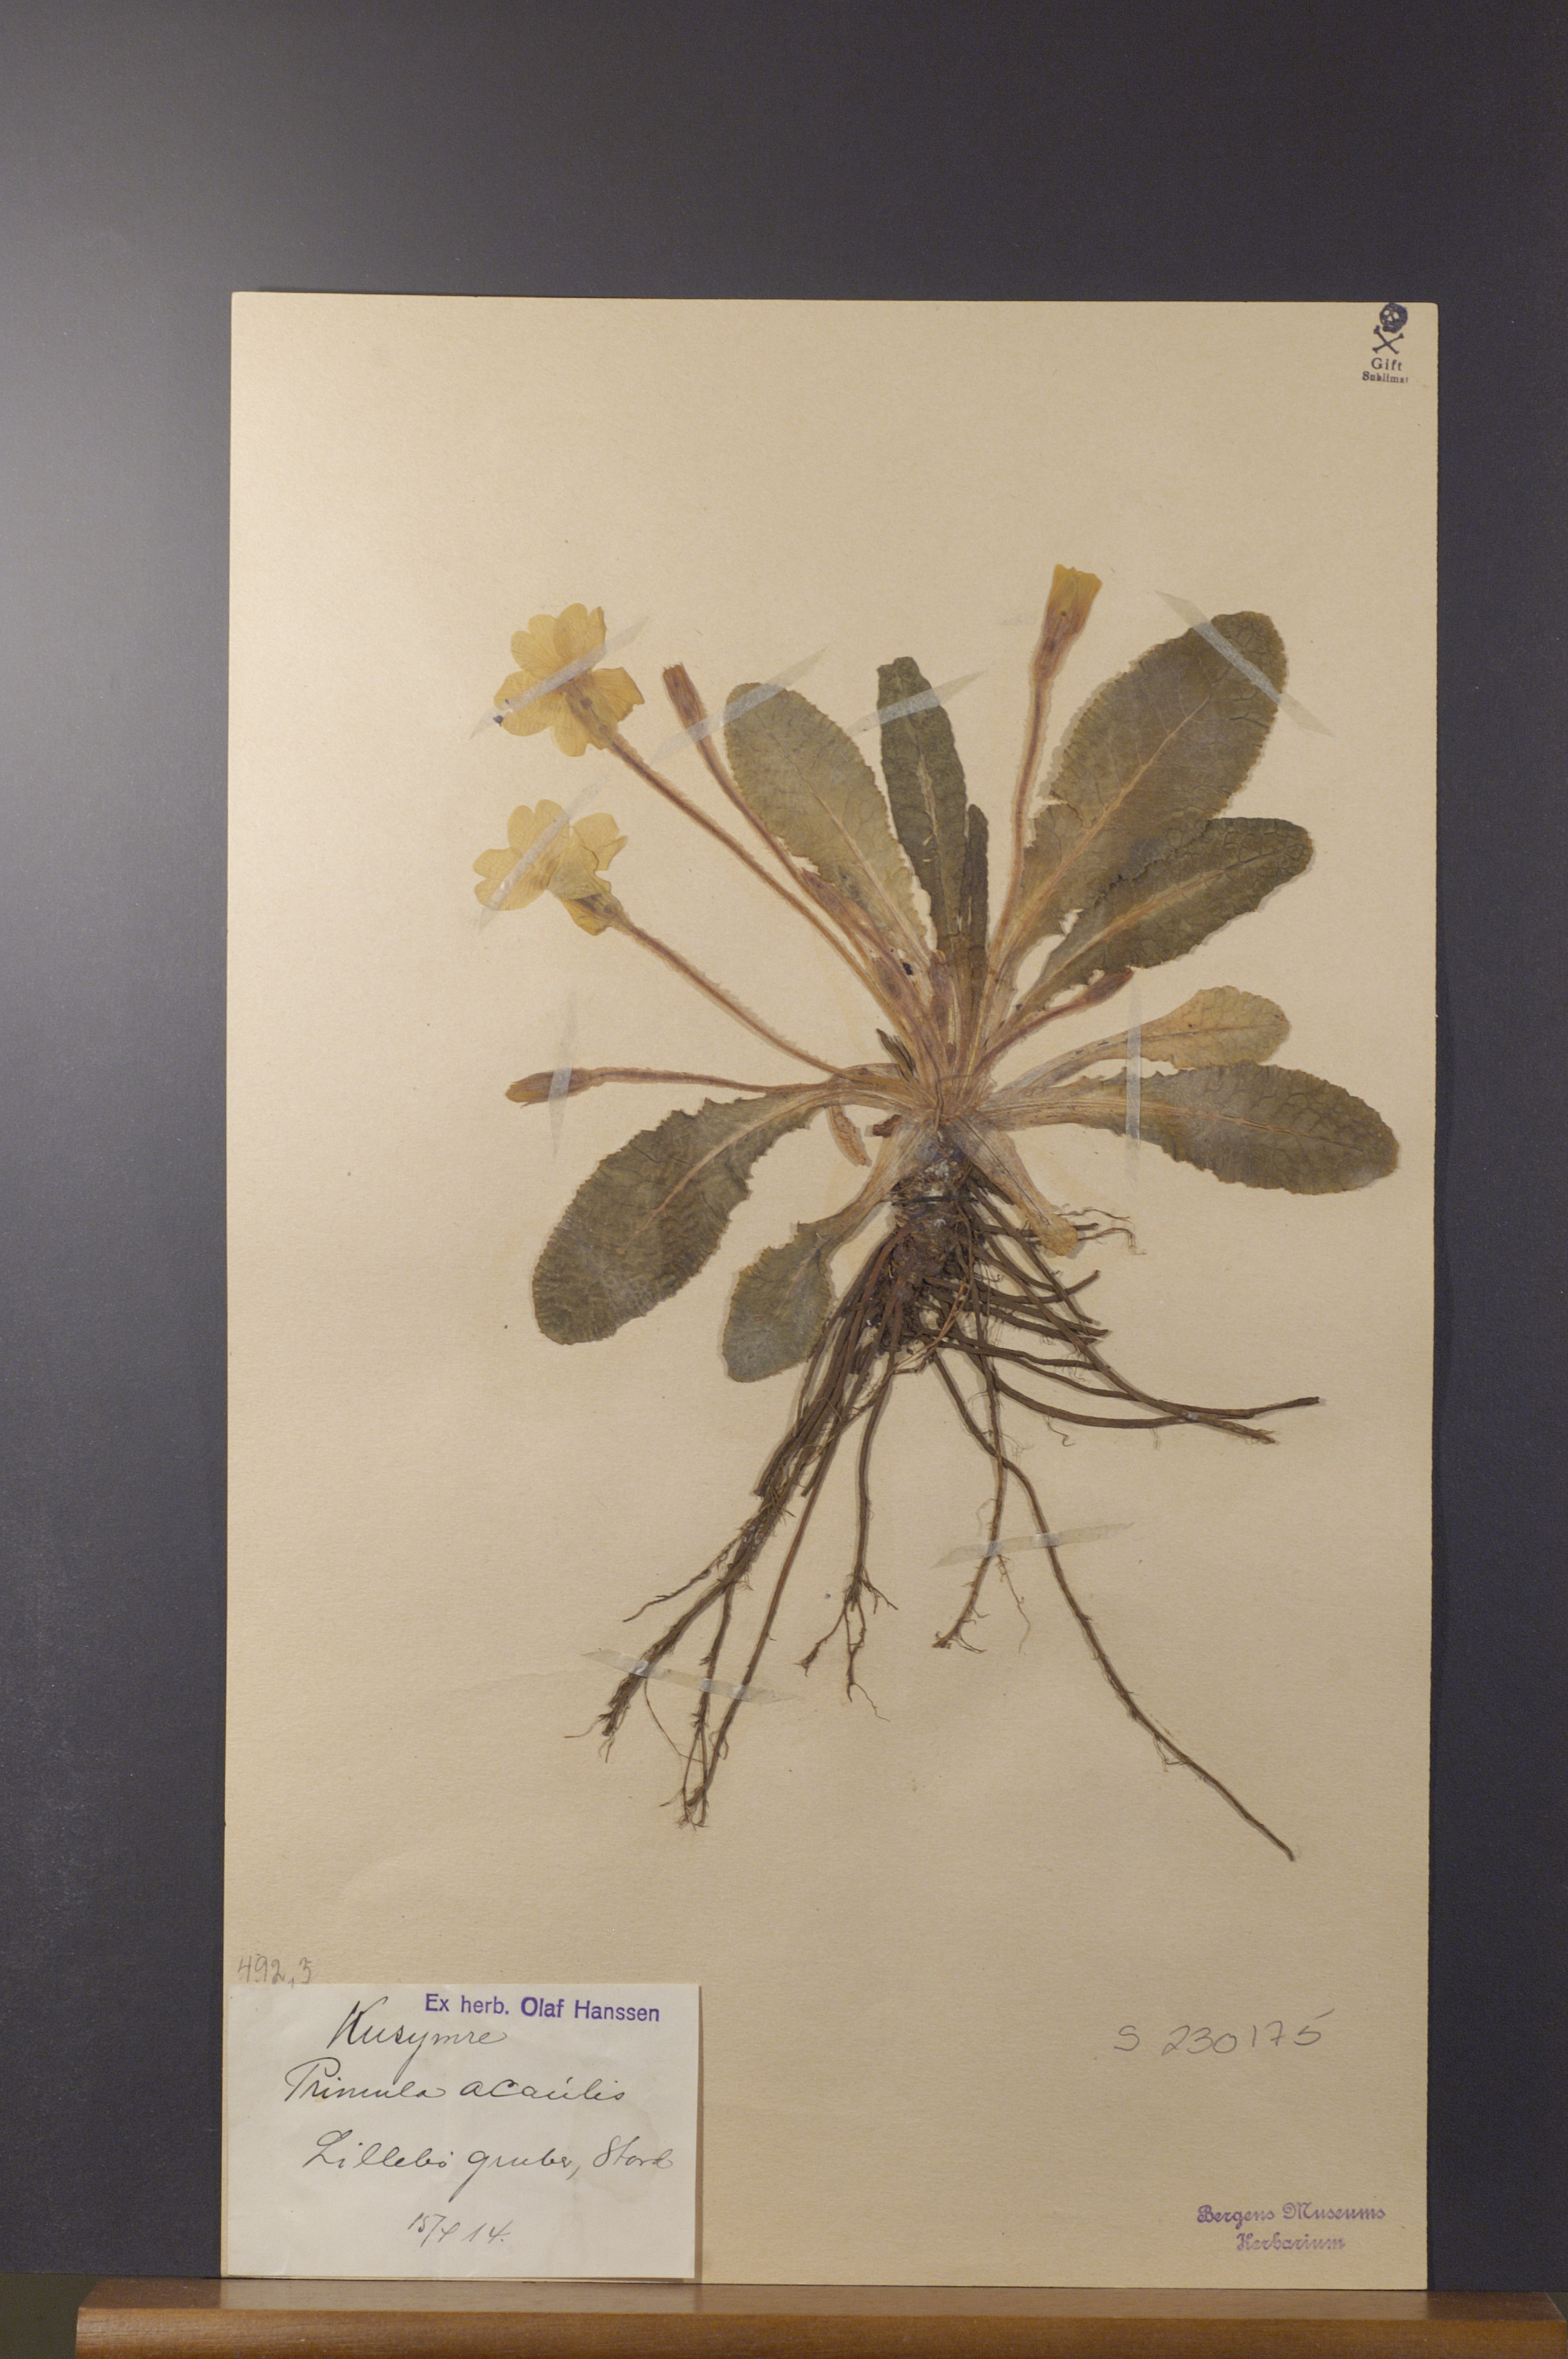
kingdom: Plantae
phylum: Tracheophyta
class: Magnoliopsida
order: Ericales
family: Primulaceae
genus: Primula
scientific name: Primula vulgaris
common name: Primrose
